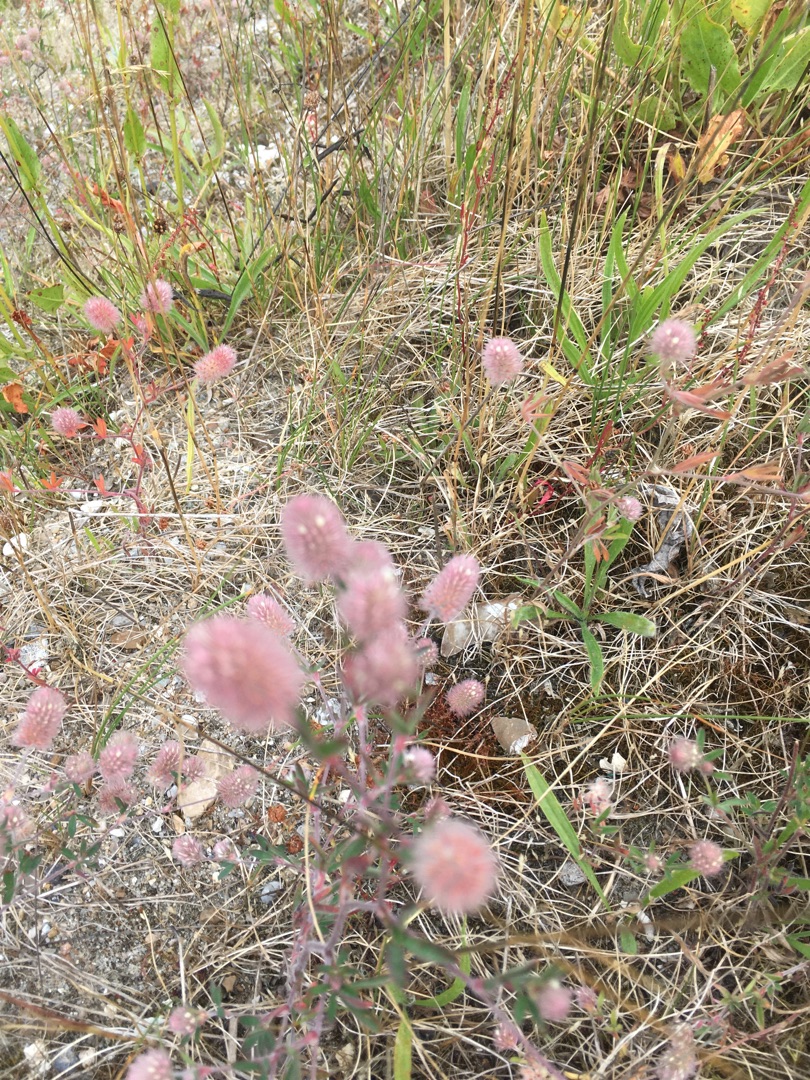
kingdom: Plantae
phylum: Tracheophyta
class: Magnoliopsida
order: Fabales
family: Fabaceae
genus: Trifolium
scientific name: Trifolium arvense
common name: Hare-kløver
